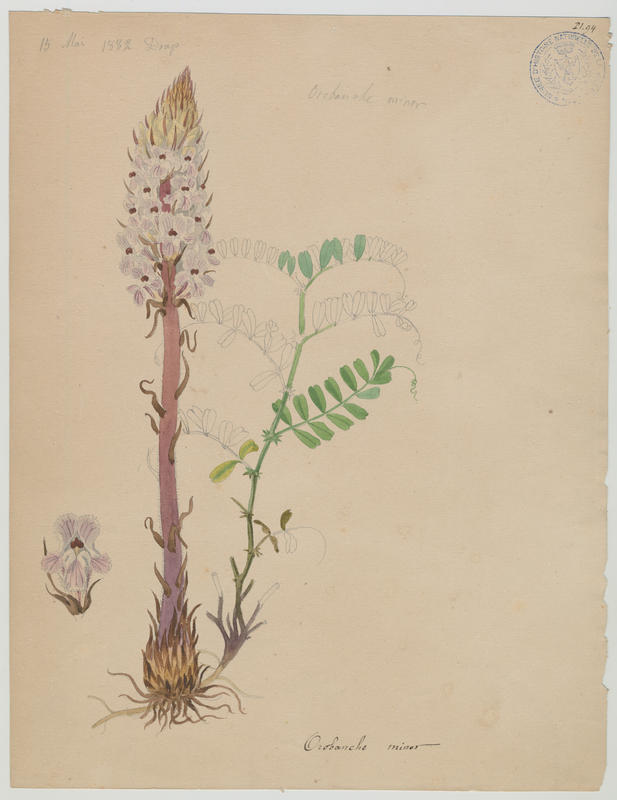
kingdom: Plantae
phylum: Tracheophyta
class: Magnoliopsida
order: Lamiales
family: Orobanchaceae
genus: Orobanche
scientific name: Orobanche minor
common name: Common broomrape
